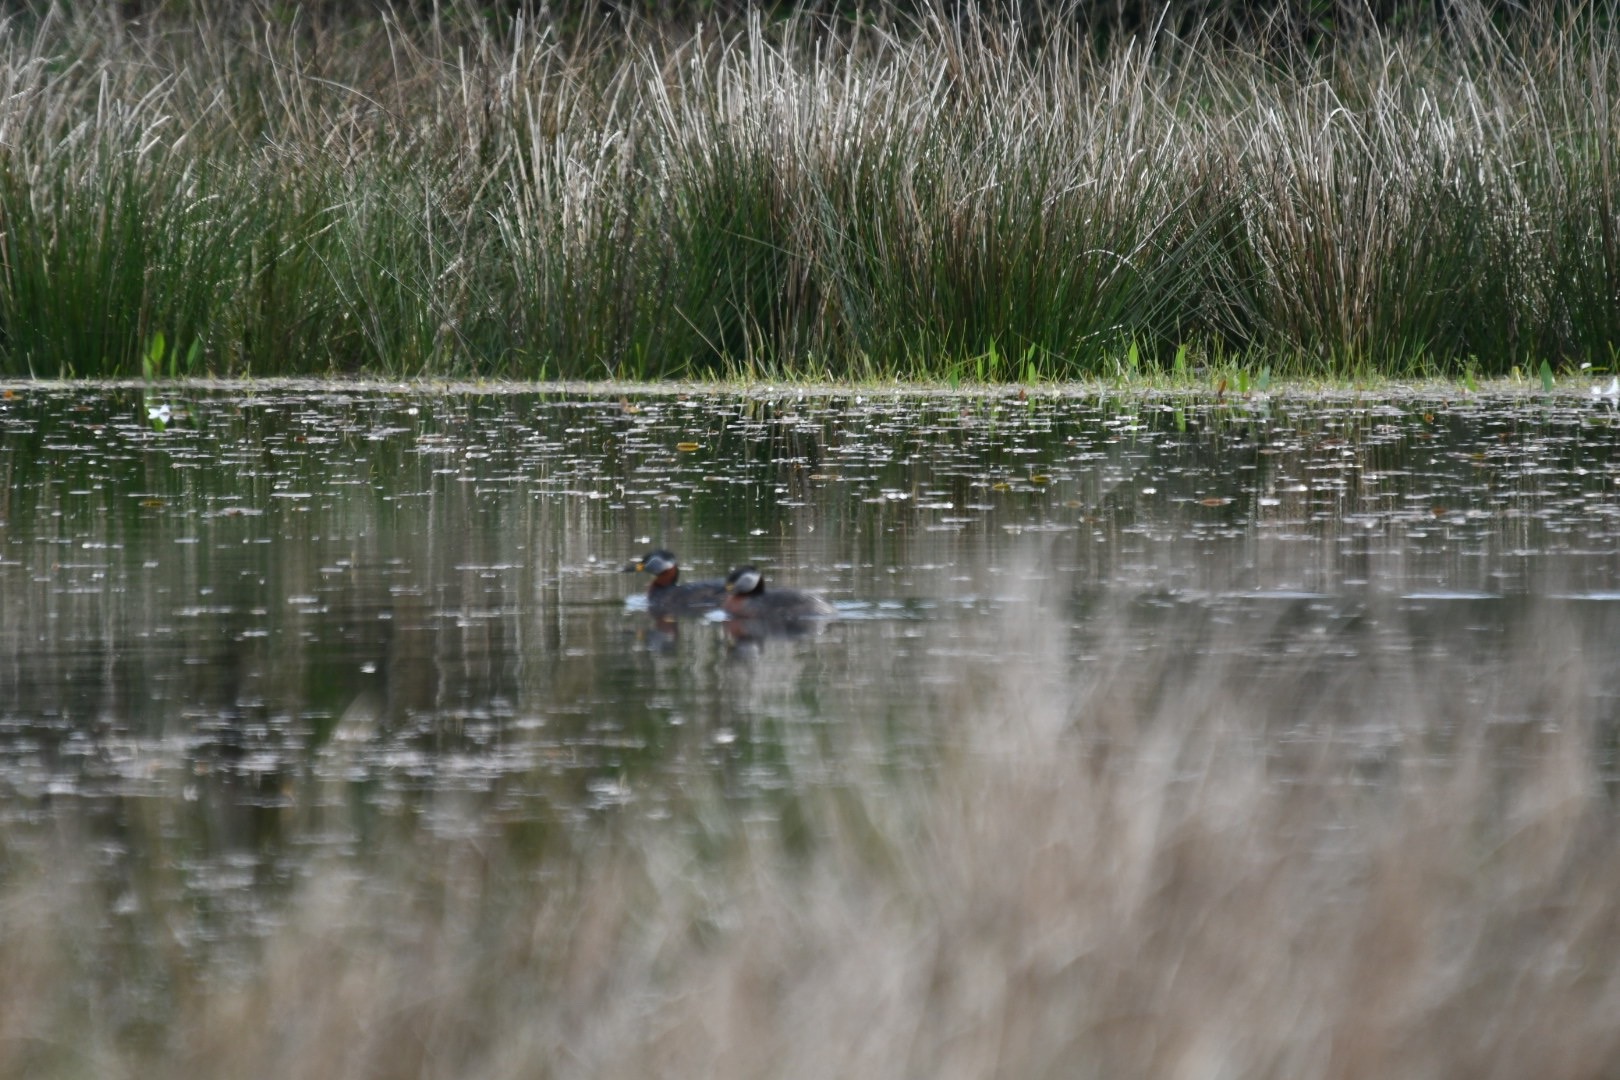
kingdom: Animalia
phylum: Chordata
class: Aves
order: Podicipediformes
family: Podicipedidae
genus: Podiceps
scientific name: Podiceps grisegena
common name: Gråstrubet lappedykker
